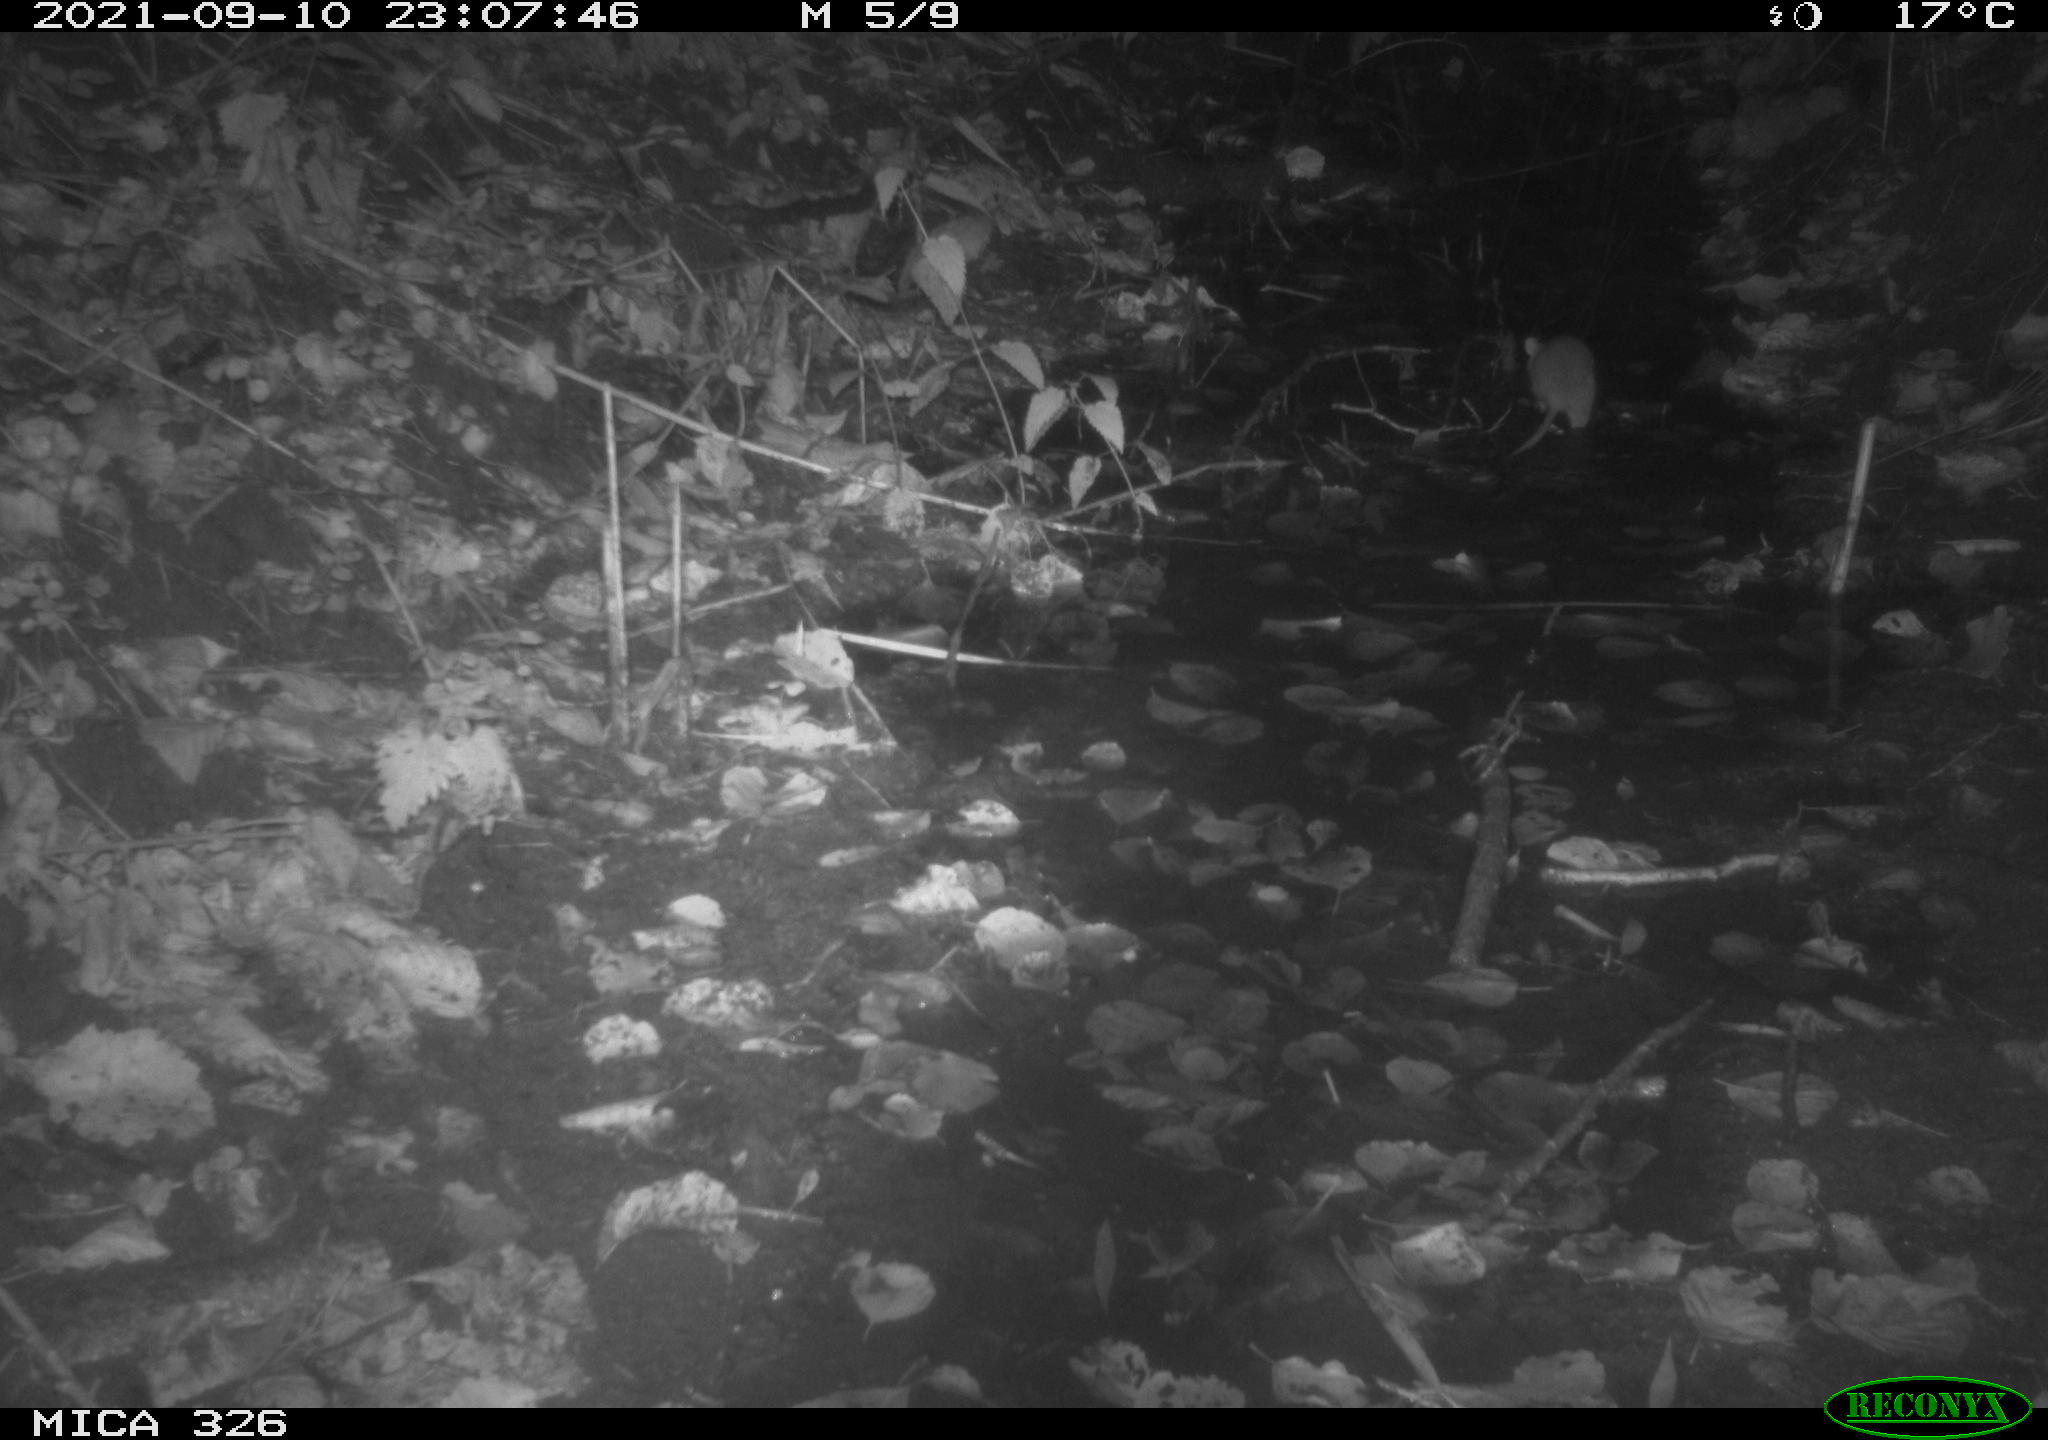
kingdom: Animalia
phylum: Chordata
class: Mammalia
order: Rodentia
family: Muridae
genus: Rattus
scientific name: Rattus norvegicus
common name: Brown rat
